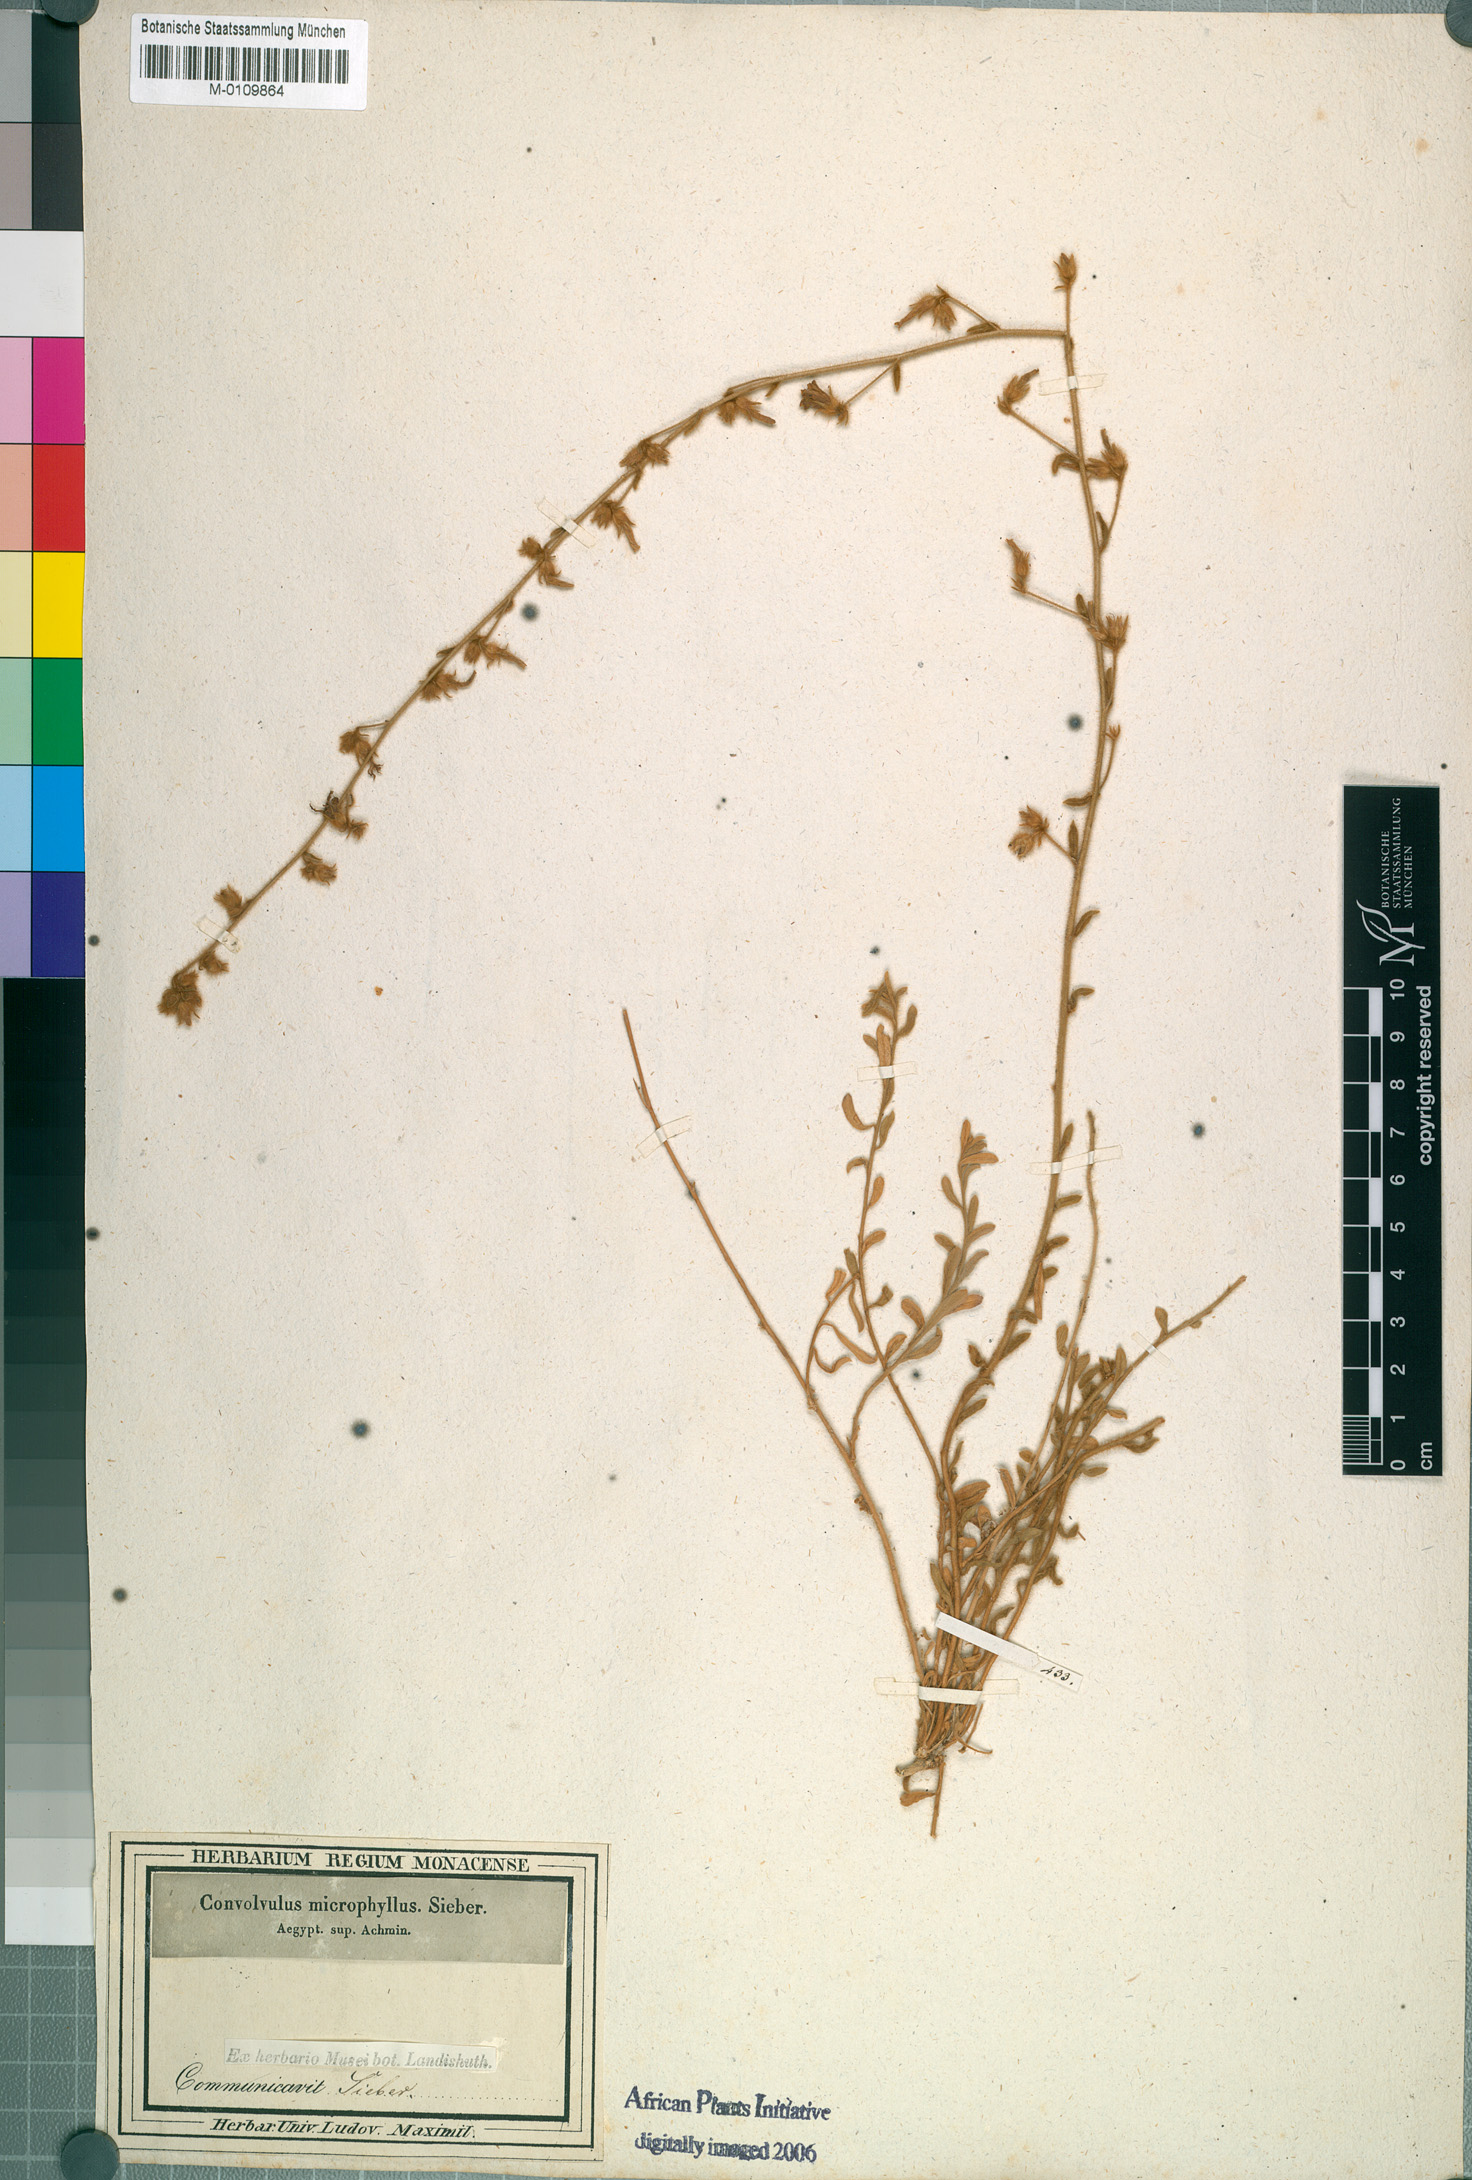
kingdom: Plantae
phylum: Tracheophyta
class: Magnoliopsida
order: Solanales
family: Convolvulaceae
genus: Convolvulus
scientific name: Convolvulus prostratus
